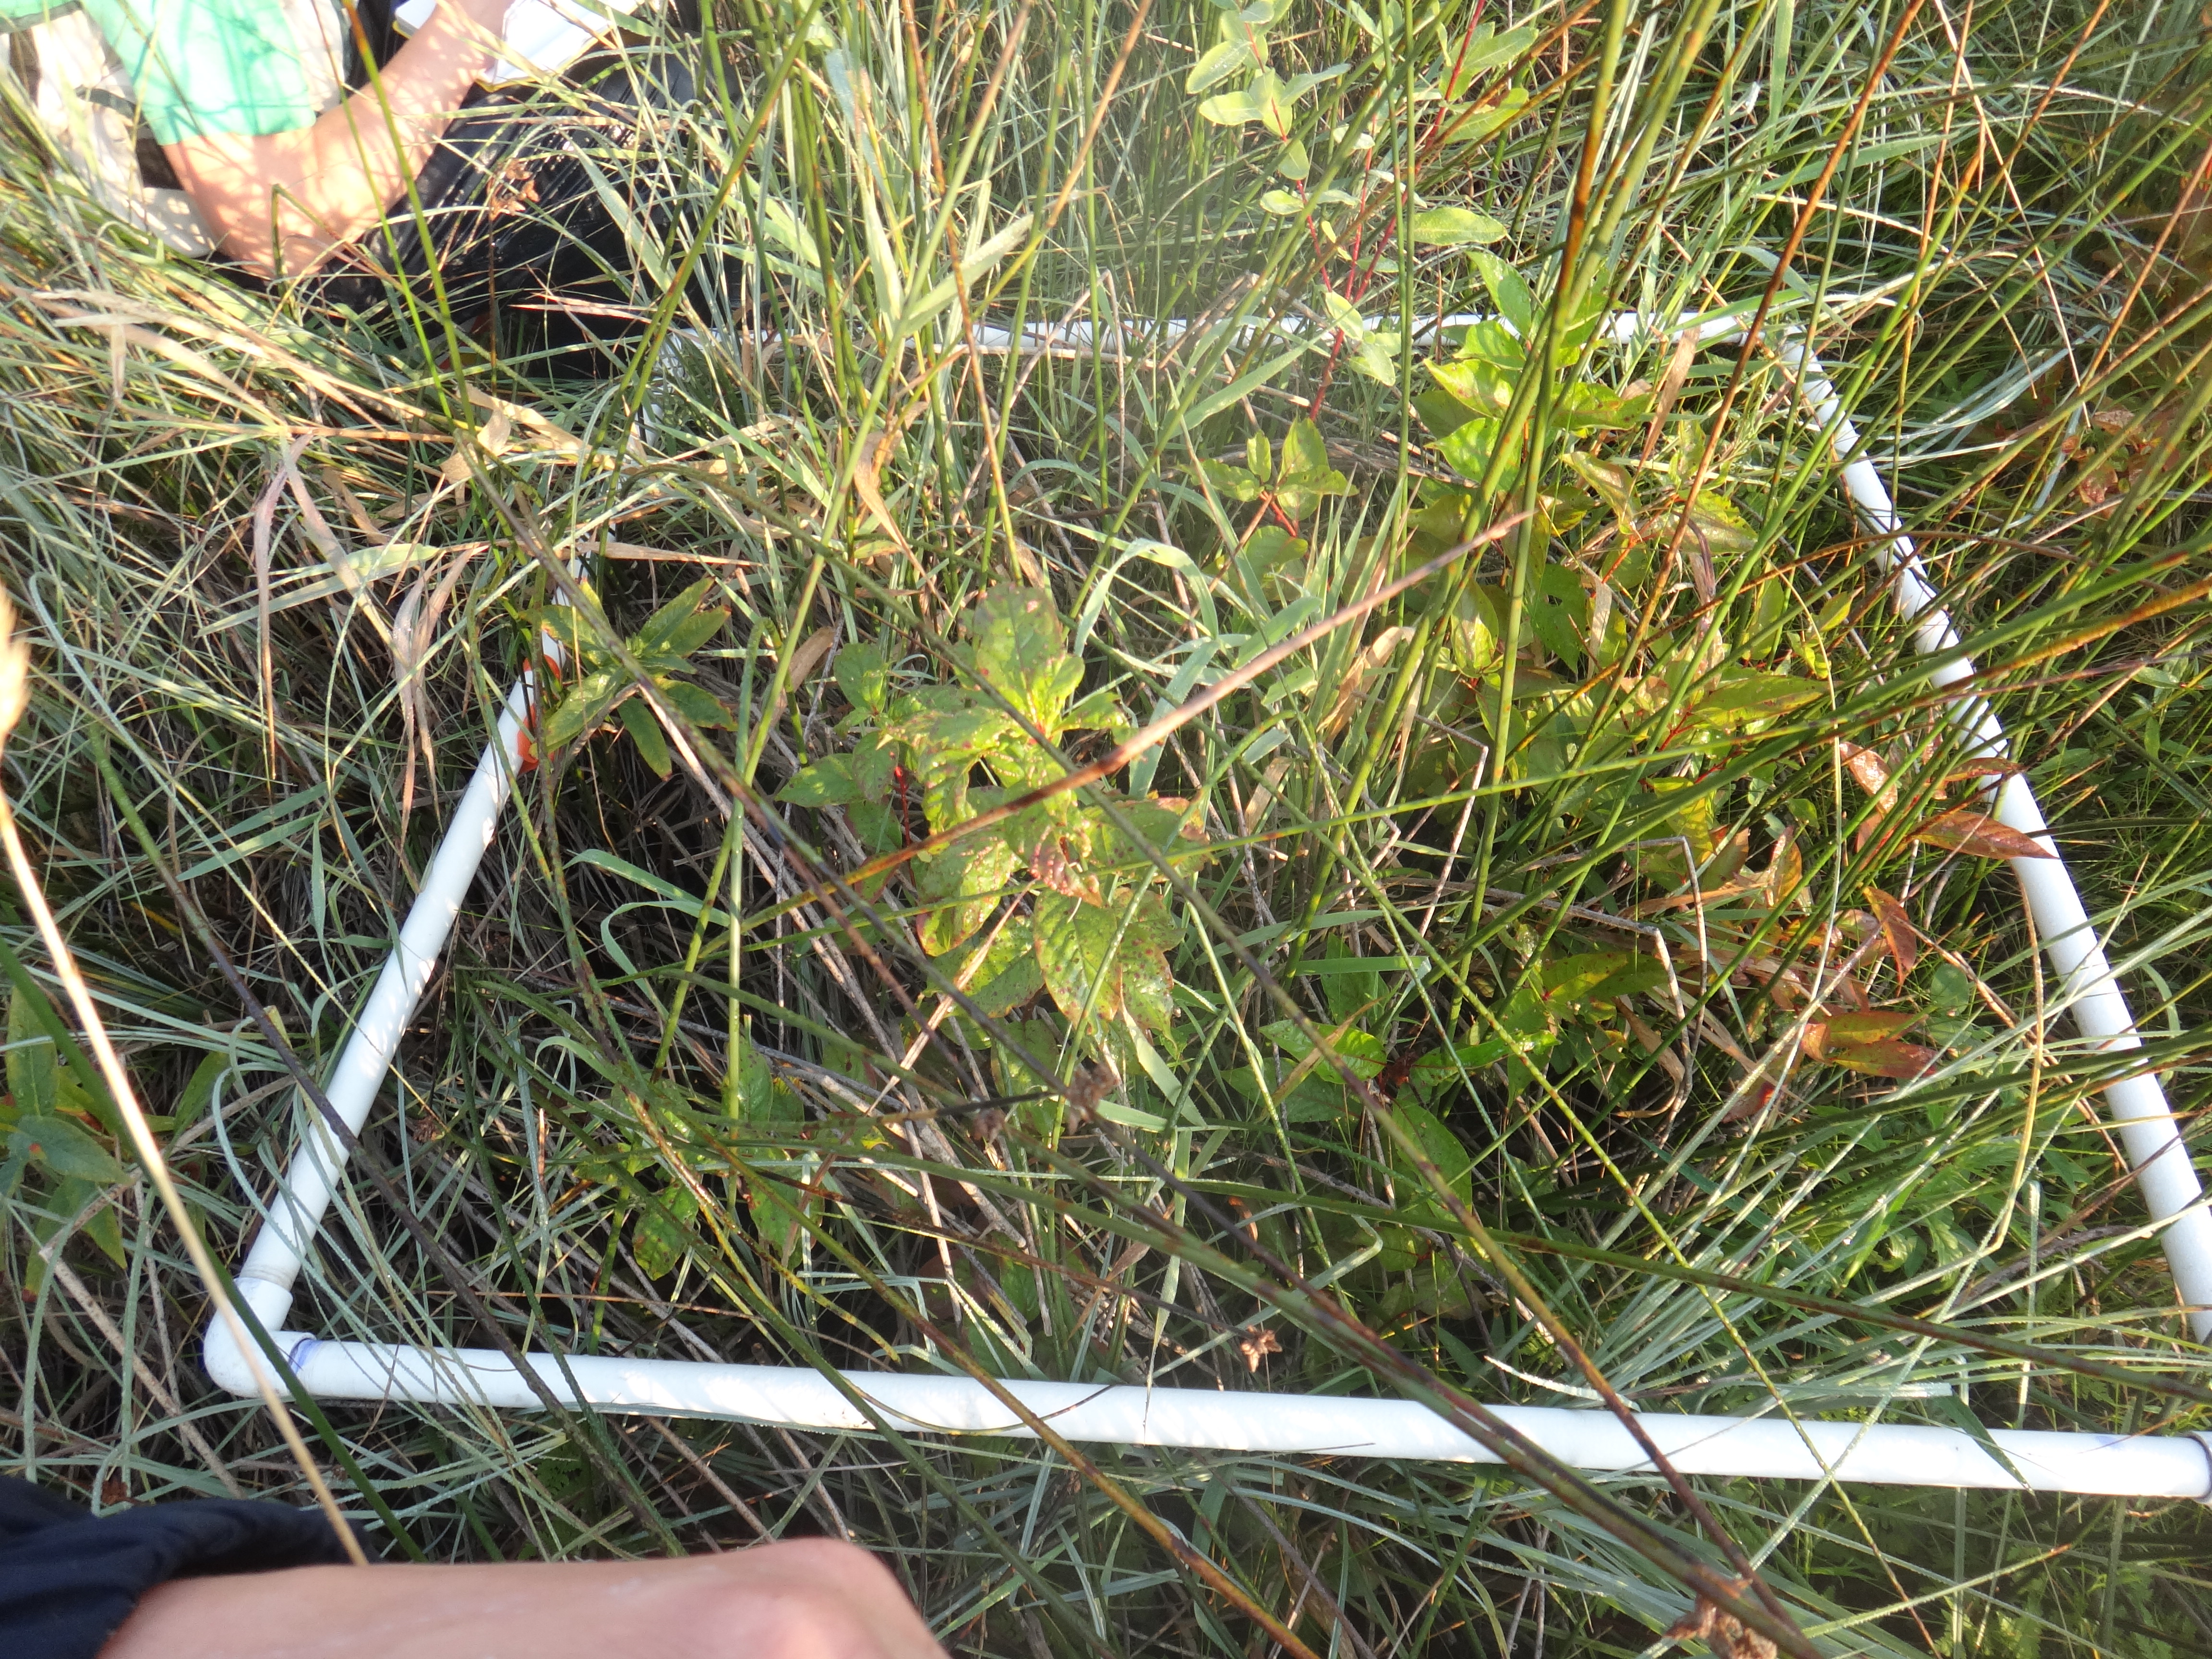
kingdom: Plantae
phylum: Tracheophyta
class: Liliopsida
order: Poales
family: Cyperaceae
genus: Carex
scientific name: Carex aquatilis
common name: Water sedge
